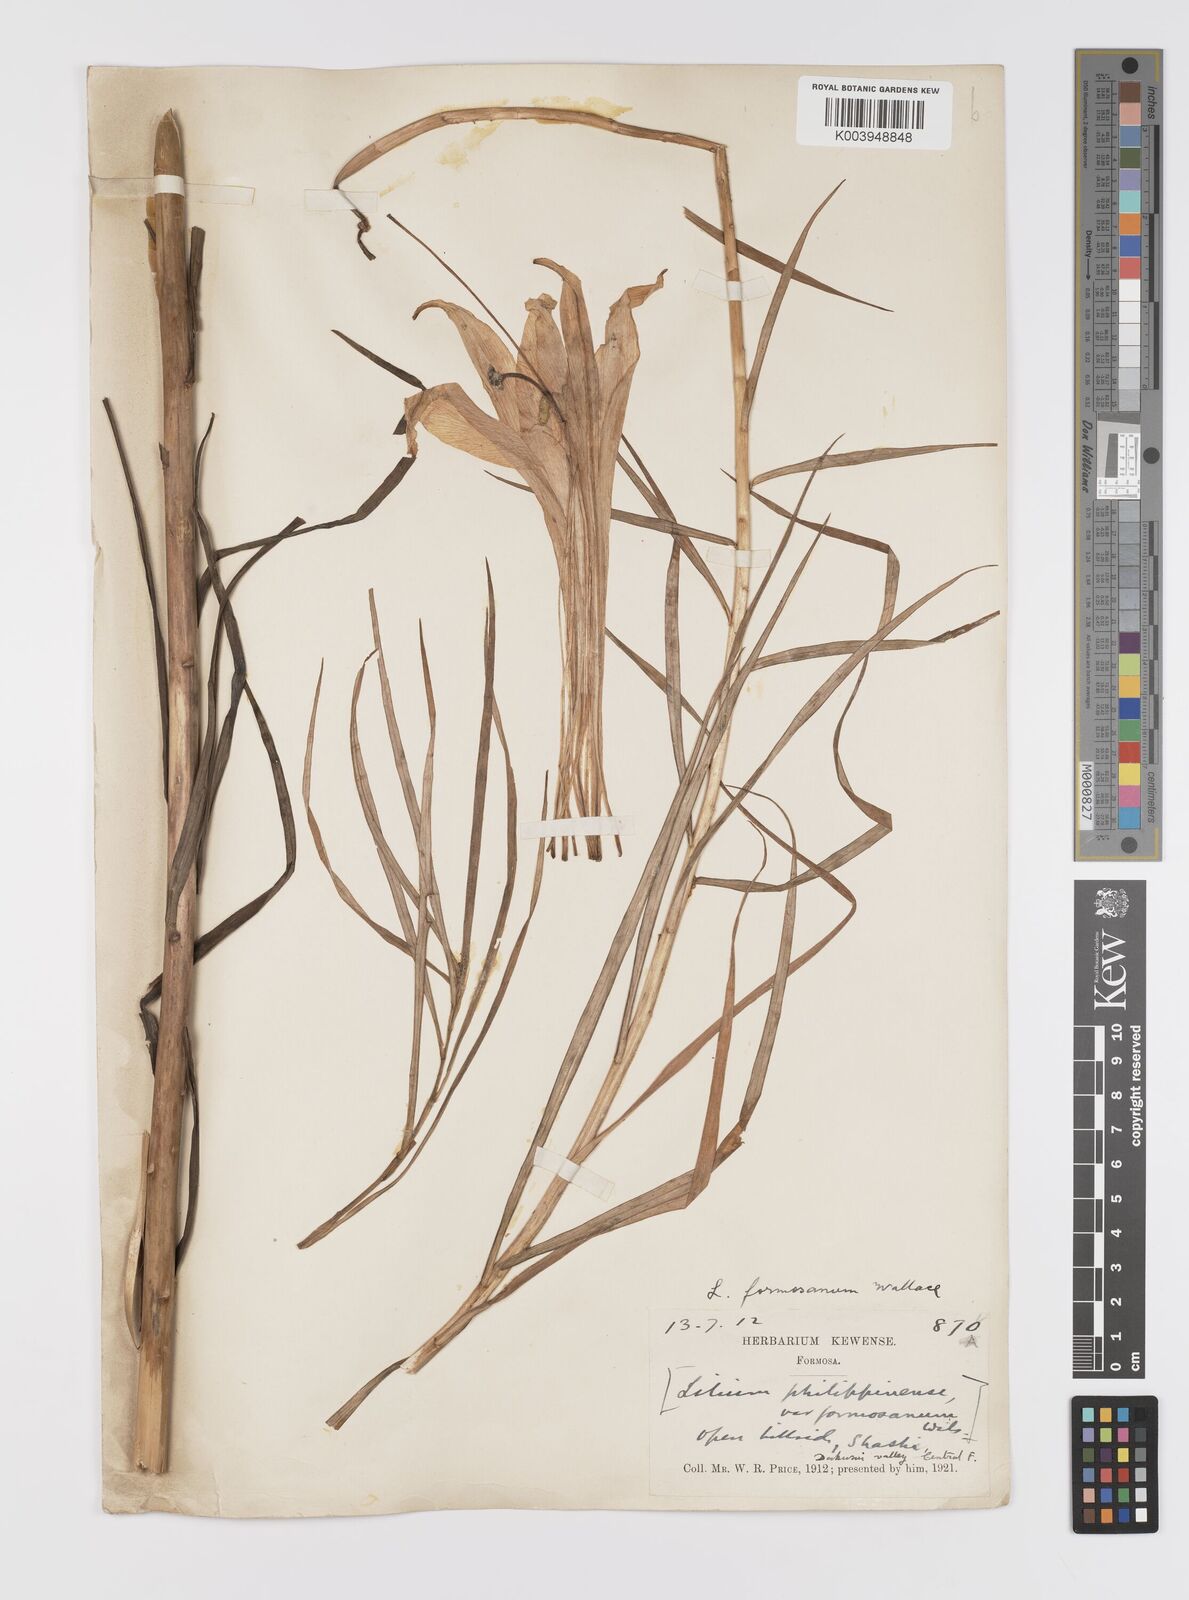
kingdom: Plantae
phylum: Tracheophyta
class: Liliopsida
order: Liliales
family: Liliaceae
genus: Lilium
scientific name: Lilium formosanum
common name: Formosa lily
